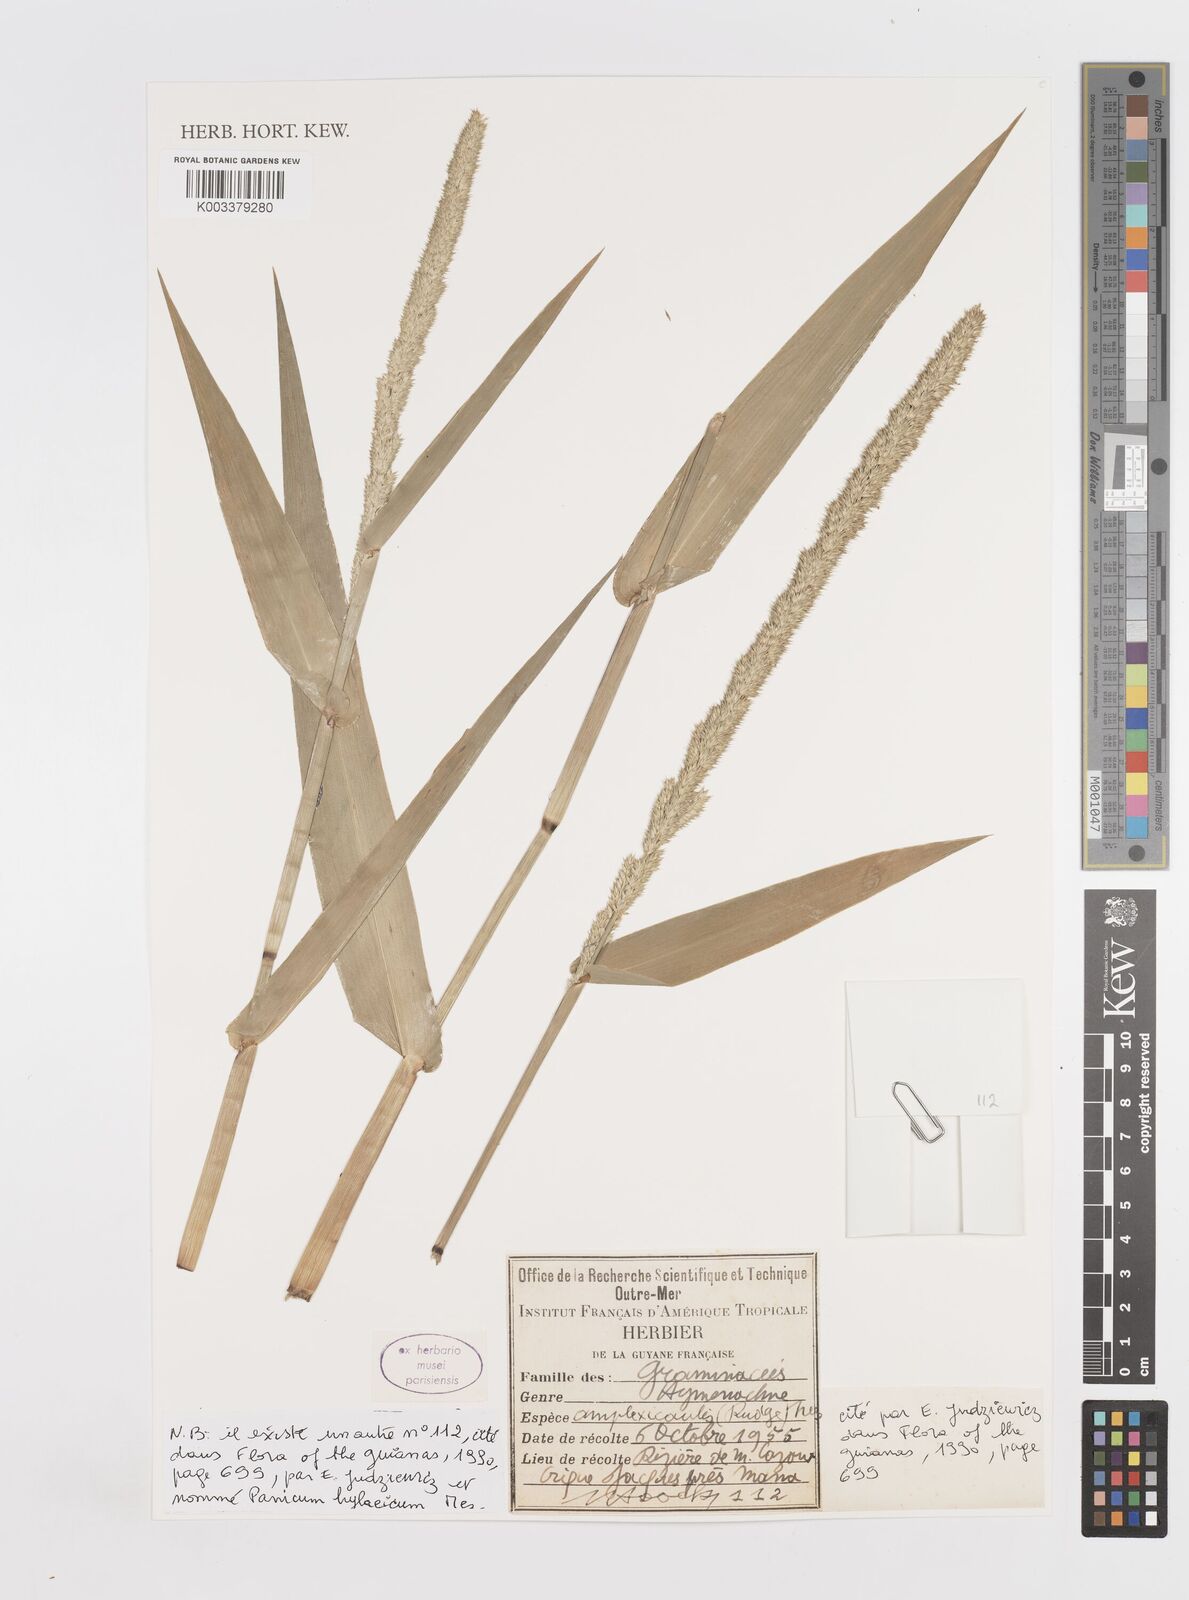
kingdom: Plantae
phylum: Tracheophyta
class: Liliopsida
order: Poales
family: Poaceae
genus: Hymenachne
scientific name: Hymenachne amplexicaulis
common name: Olive hymenachne
